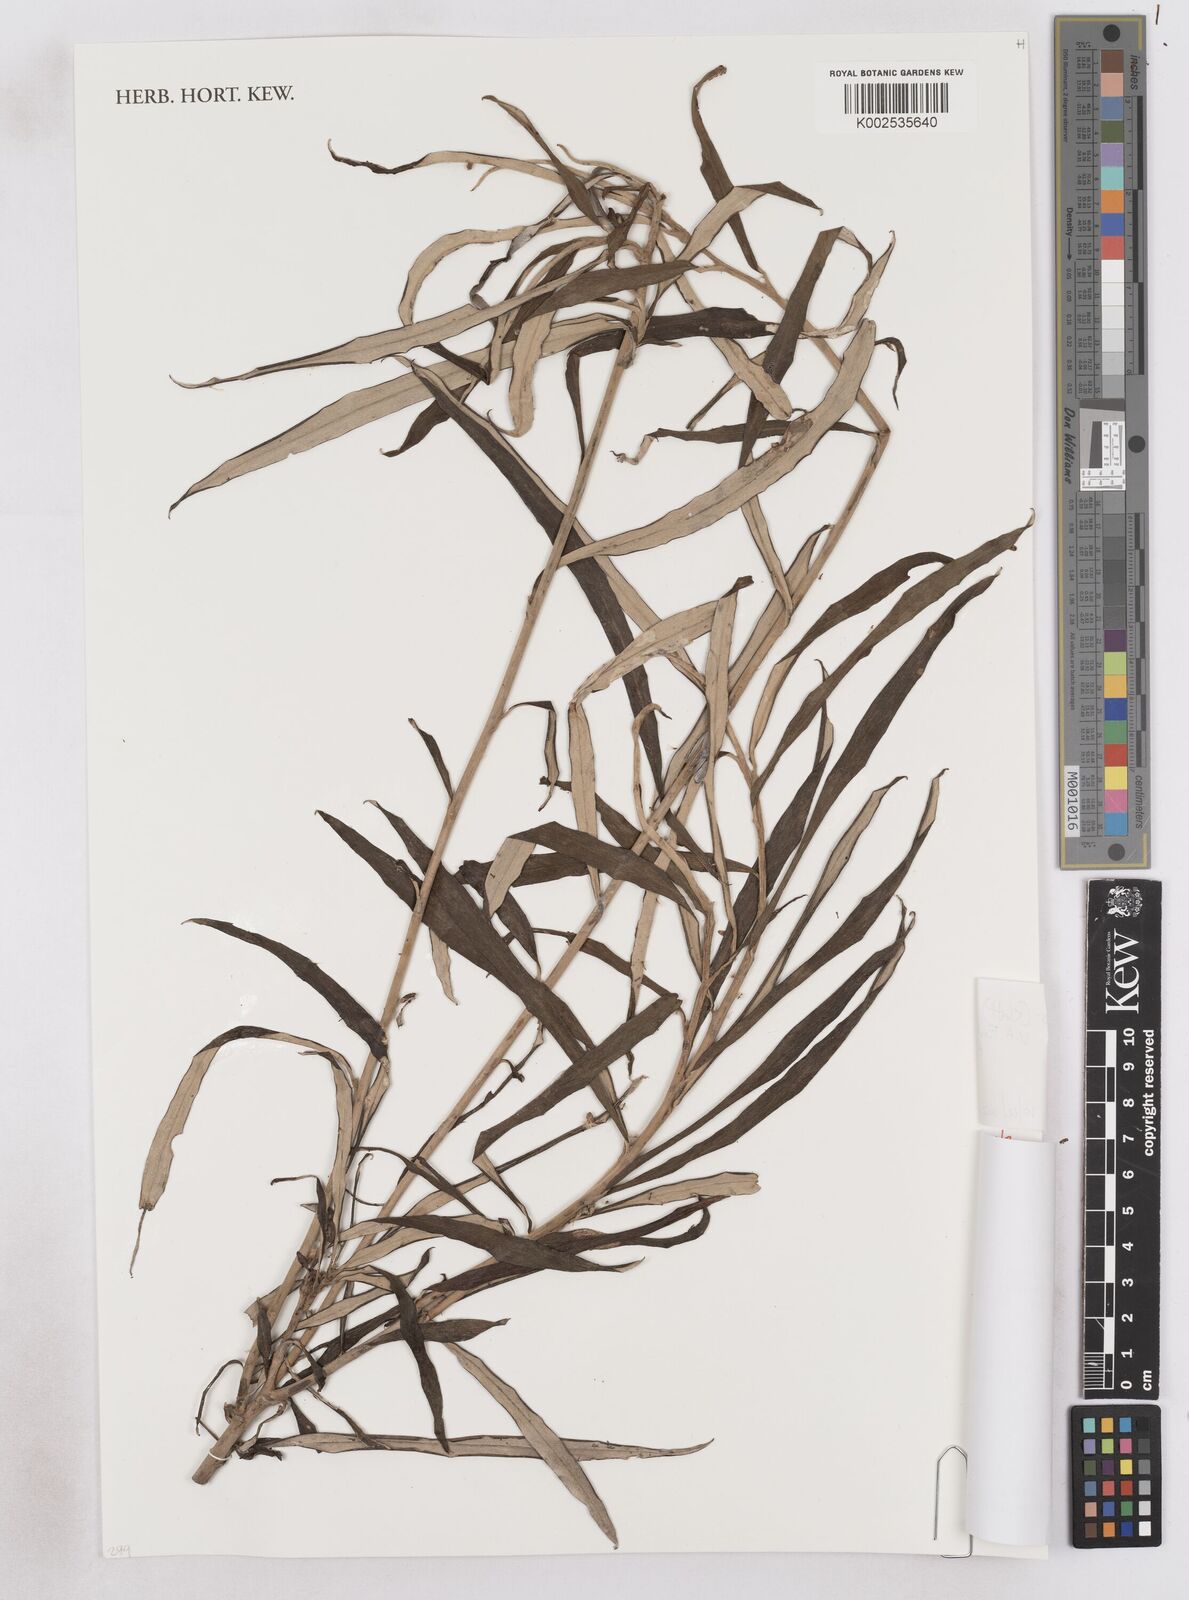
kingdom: Plantae
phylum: Tracheophyta
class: Magnoliopsida
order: Asterales
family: Asteraceae
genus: Distephanus
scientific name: Distephanus spiciformis
